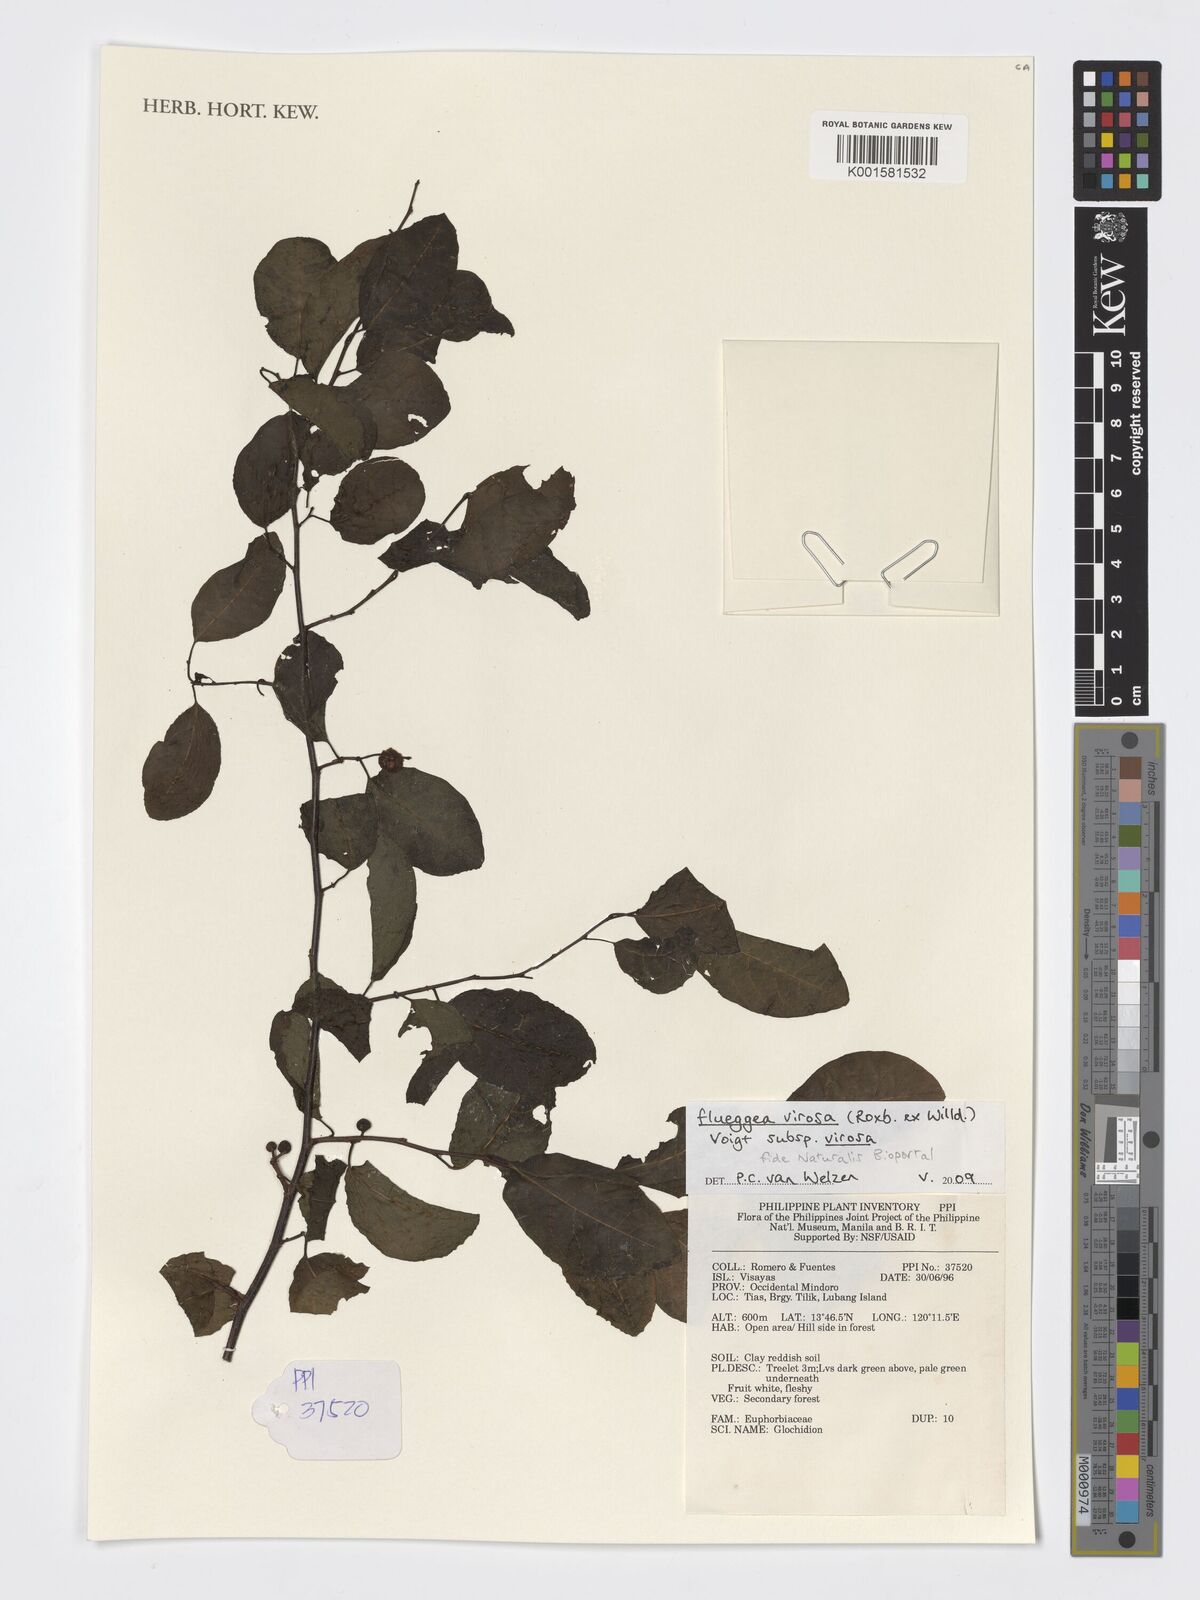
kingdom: Plantae
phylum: Tracheophyta
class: Magnoliopsida
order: Malpighiales
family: Phyllanthaceae
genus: Flueggea
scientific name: Flueggea virosa
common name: Common bushweed
